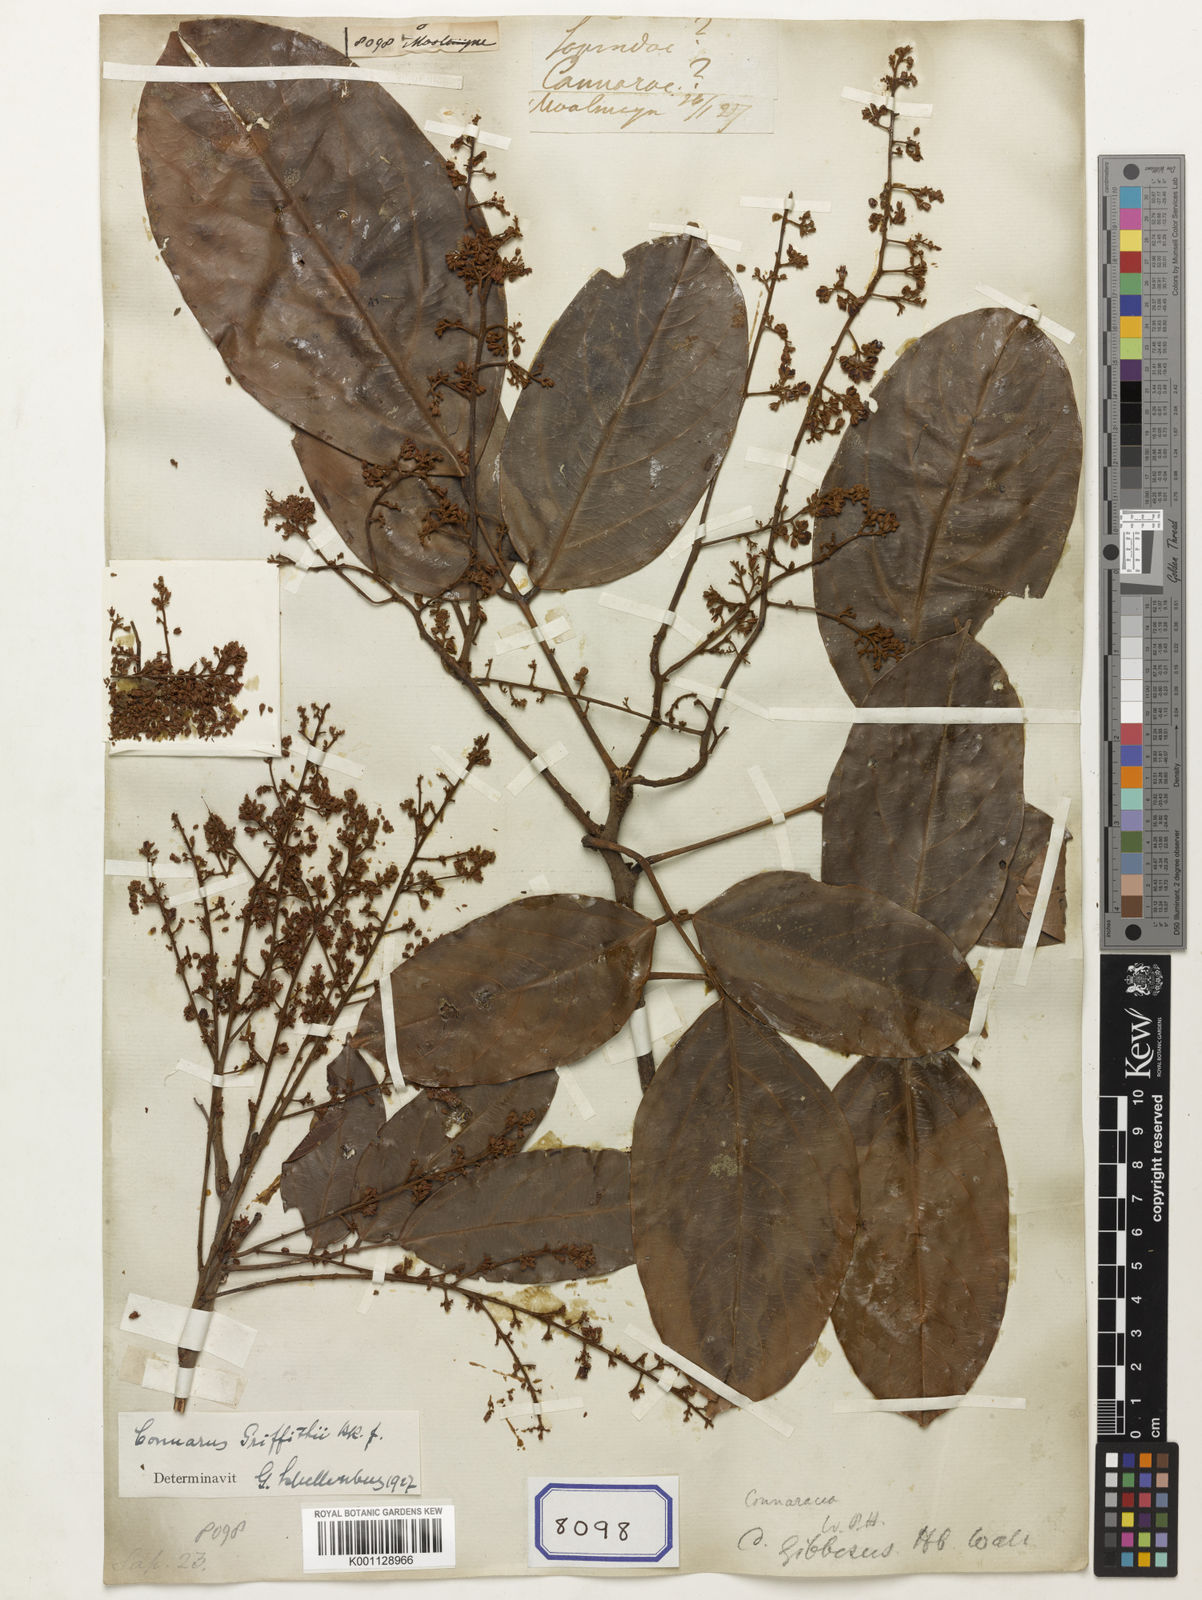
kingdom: Plantae
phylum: Tracheophyta
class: Magnoliopsida
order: Sapindales
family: Sapindaceae
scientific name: Sapindaceae
